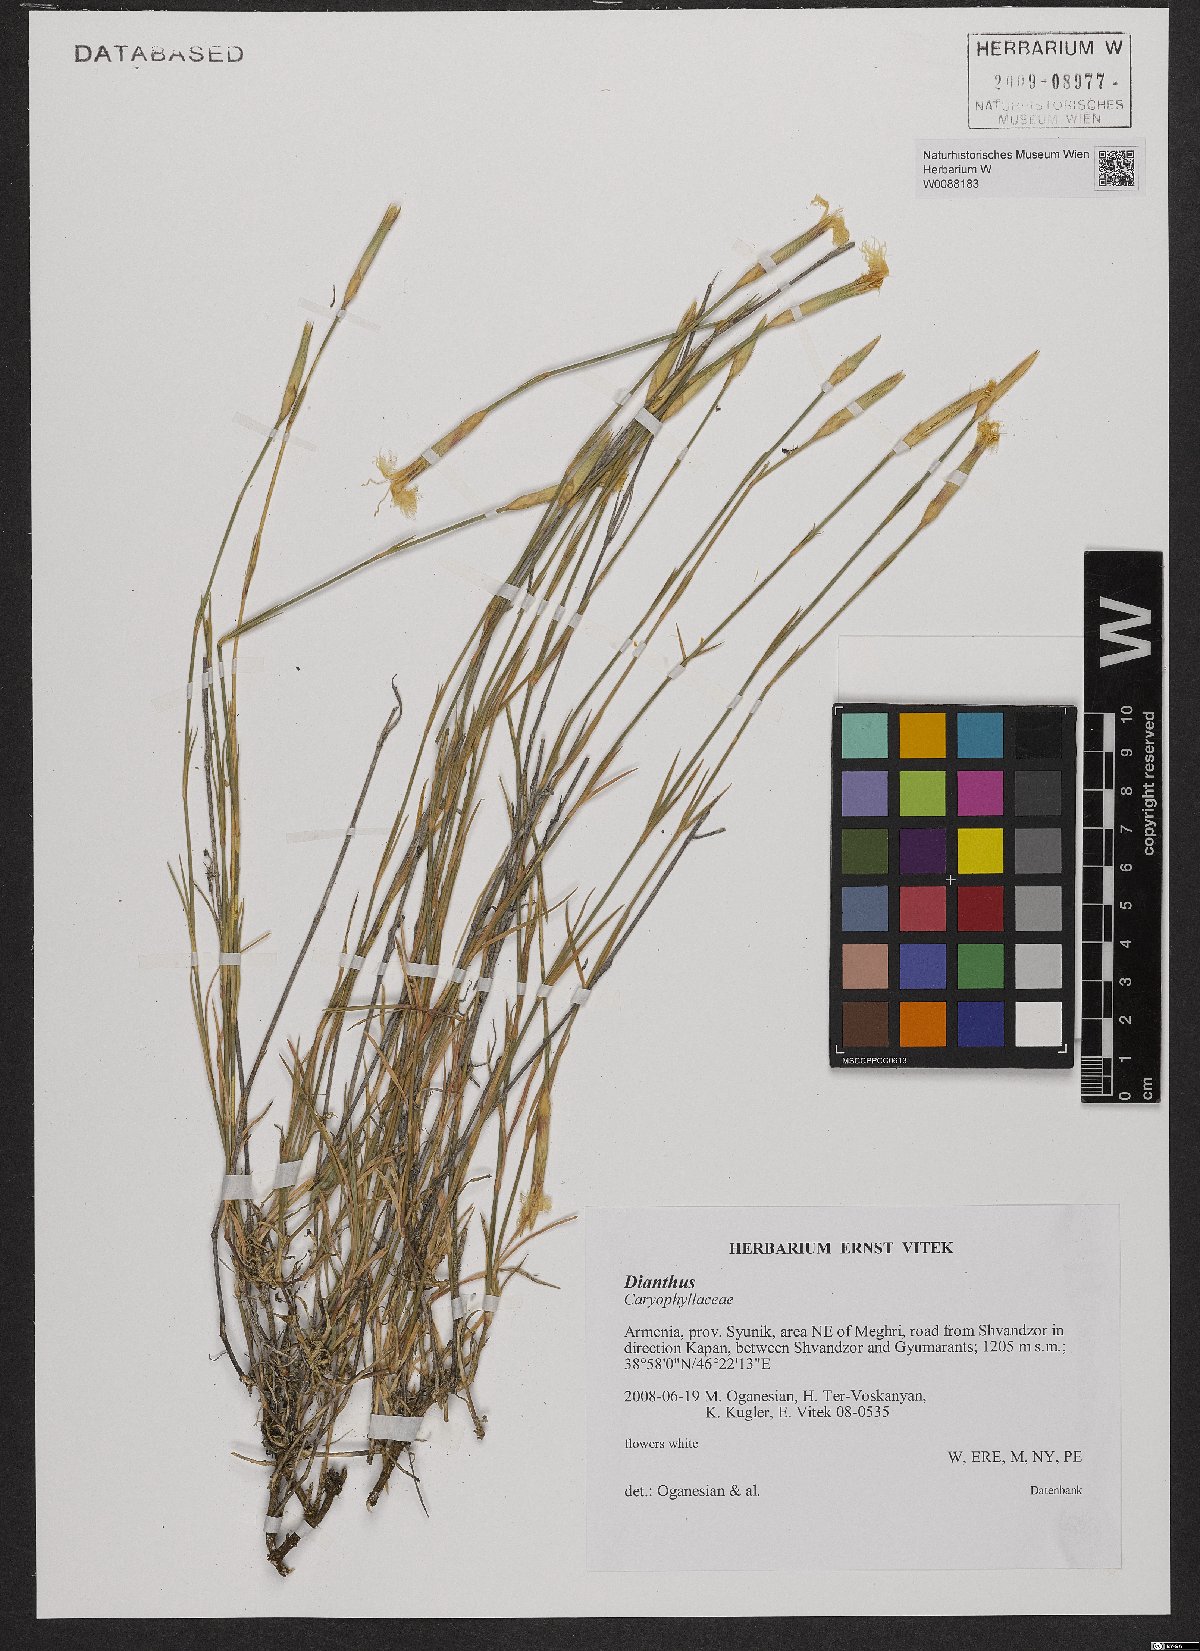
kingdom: Plantae
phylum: Tracheophyta
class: Magnoliopsida
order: Caryophyllales
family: Caryophyllaceae
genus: Dianthus
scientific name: Dianthus
